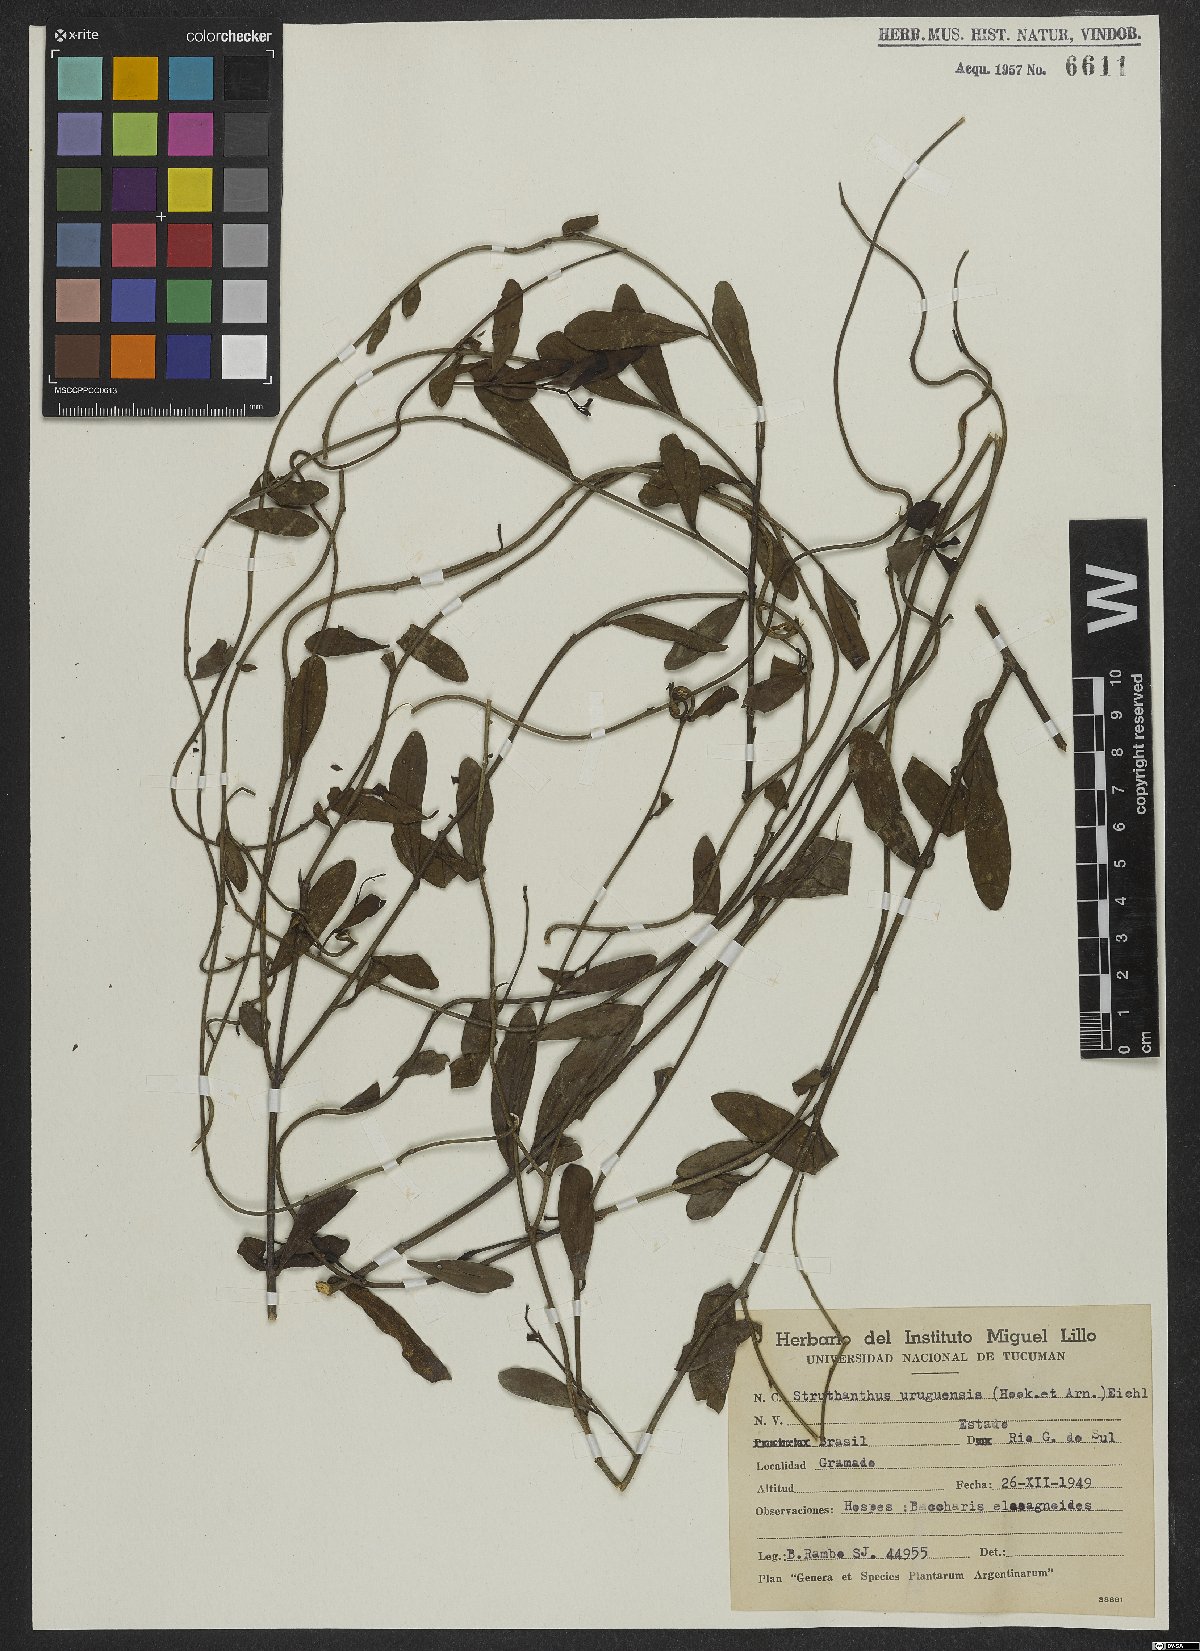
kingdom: Plantae
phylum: Tracheophyta
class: Magnoliopsida
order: Santalales
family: Loranthaceae
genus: Struthanthus
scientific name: Struthanthus uraguensis
